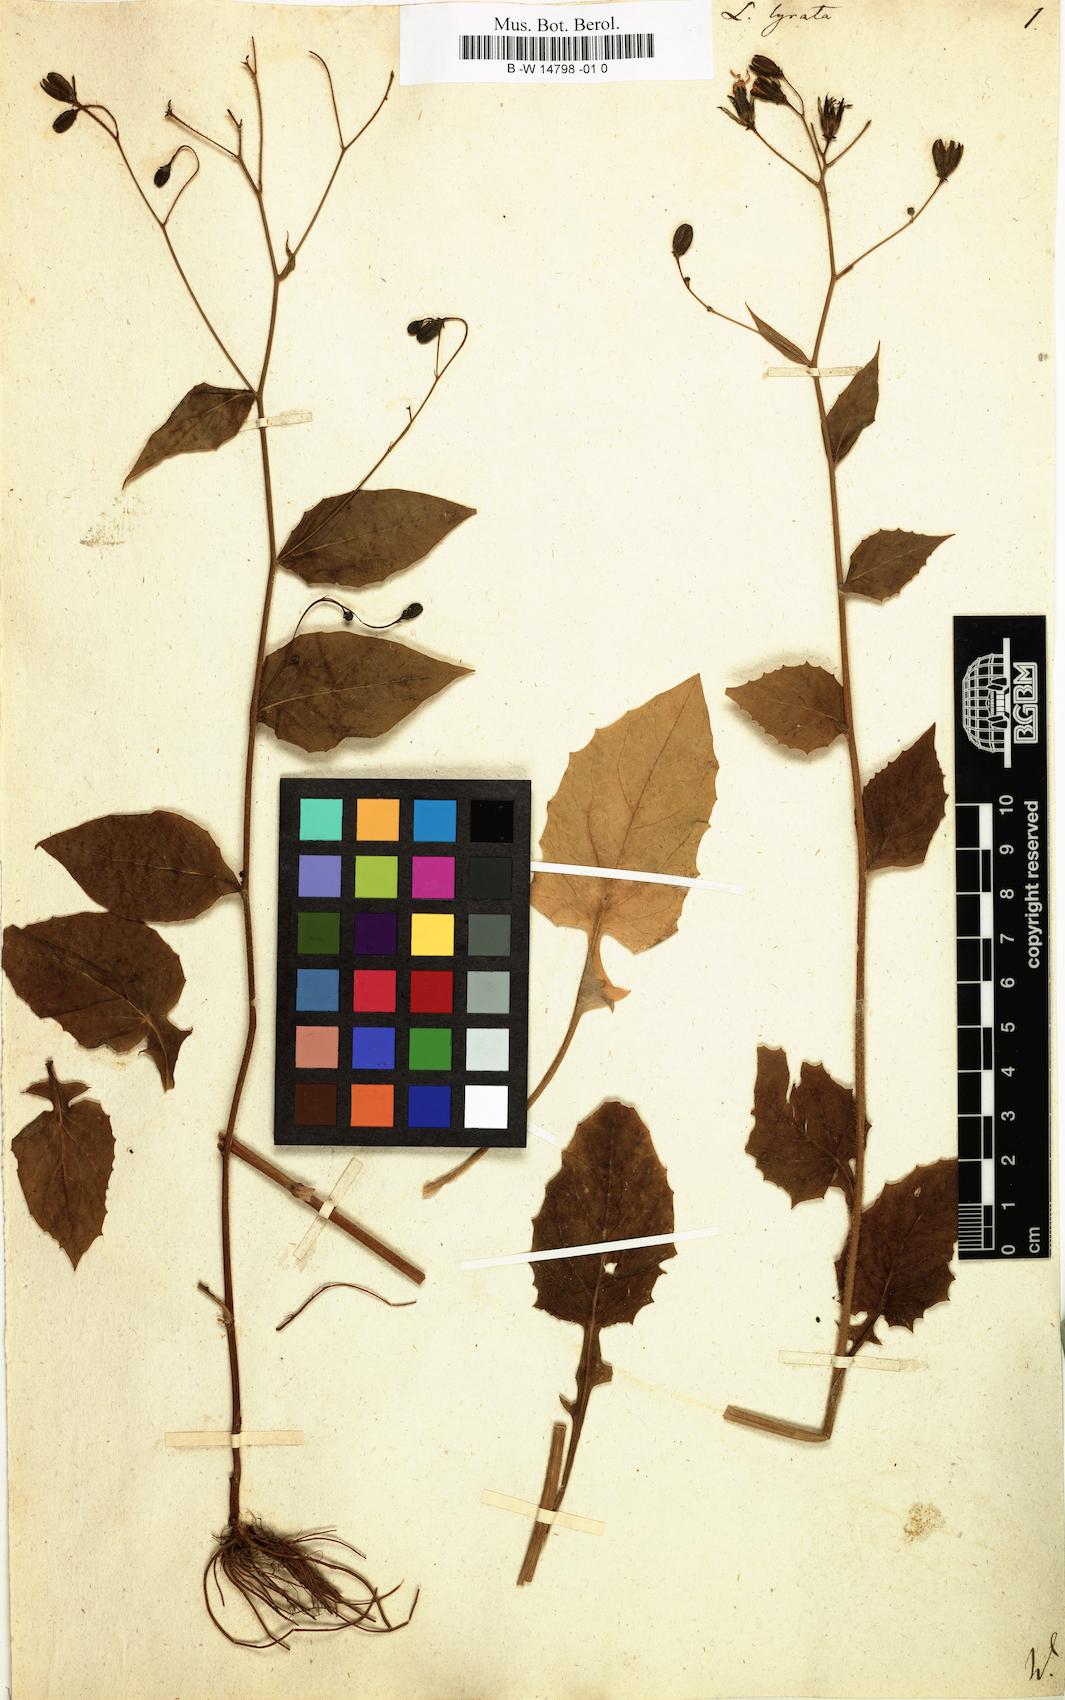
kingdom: Plantae
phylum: Tracheophyta
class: Magnoliopsida
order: Asterales
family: Asteraceae
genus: Lapsana
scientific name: Lapsana communis
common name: Nipplewort
